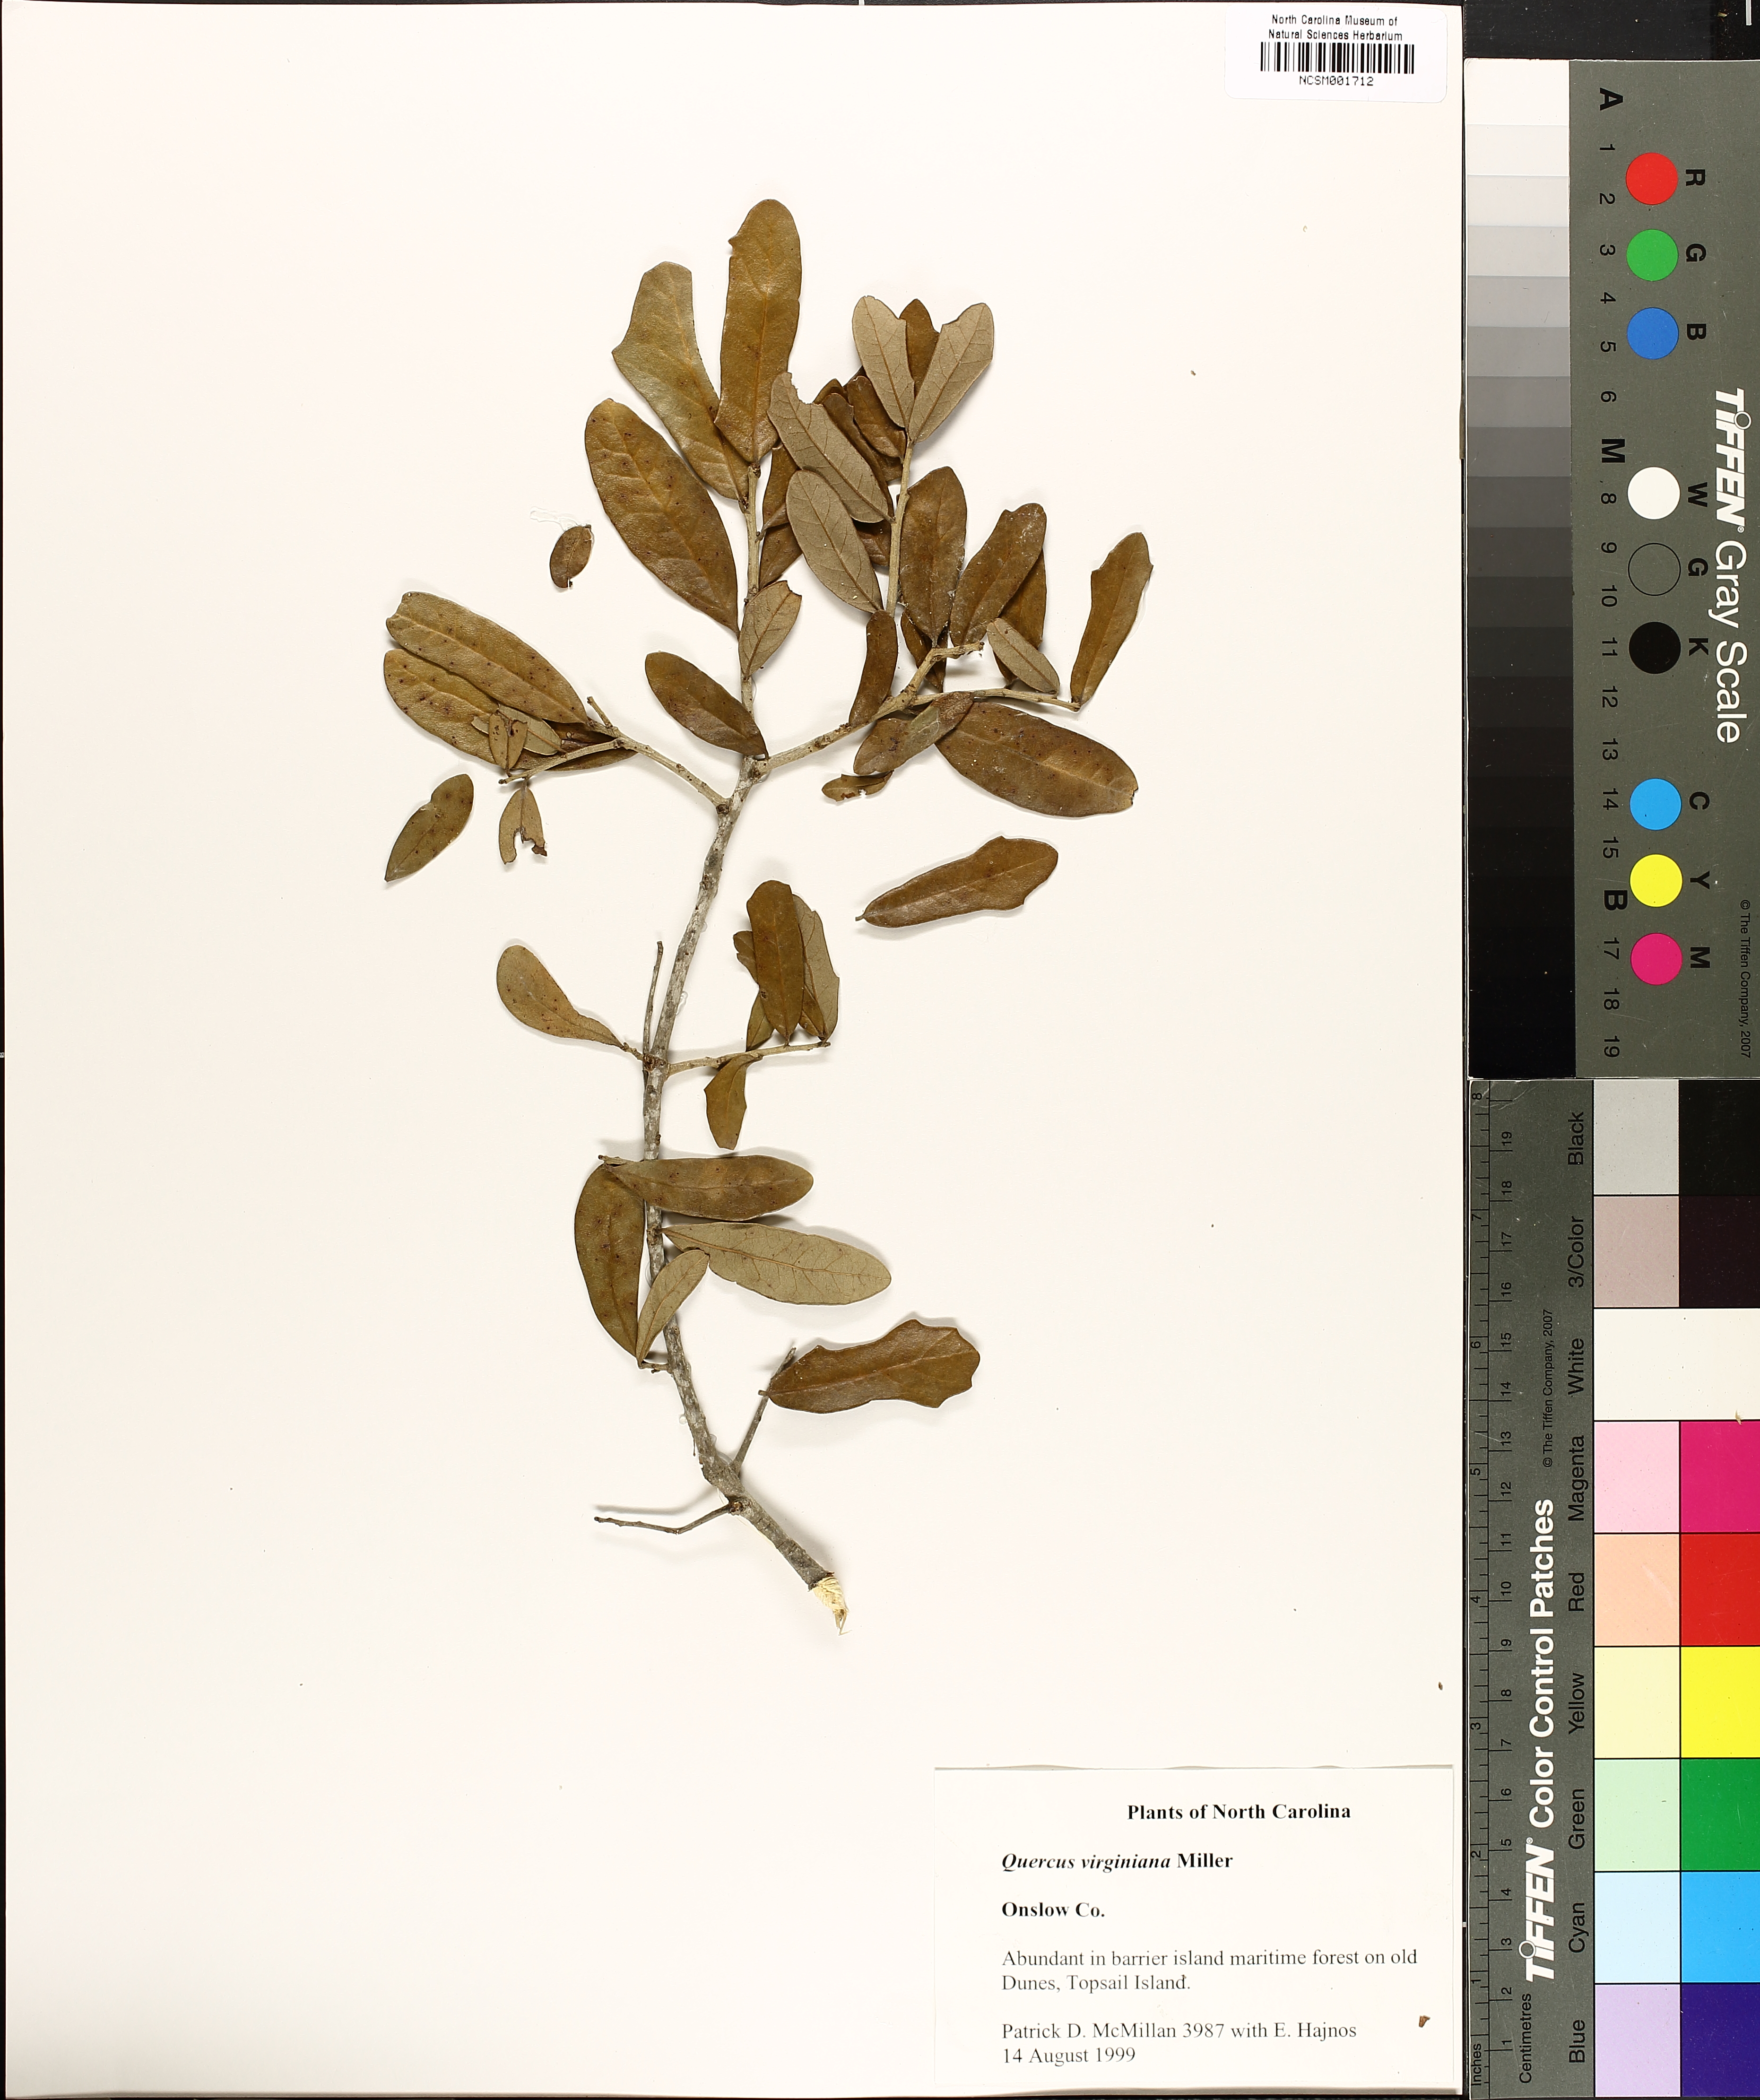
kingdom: Plantae
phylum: Tracheophyta
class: Magnoliopsida
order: Fagales
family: Fagaceae
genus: Quercus
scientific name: Quercus virginiana
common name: Southern live oak
